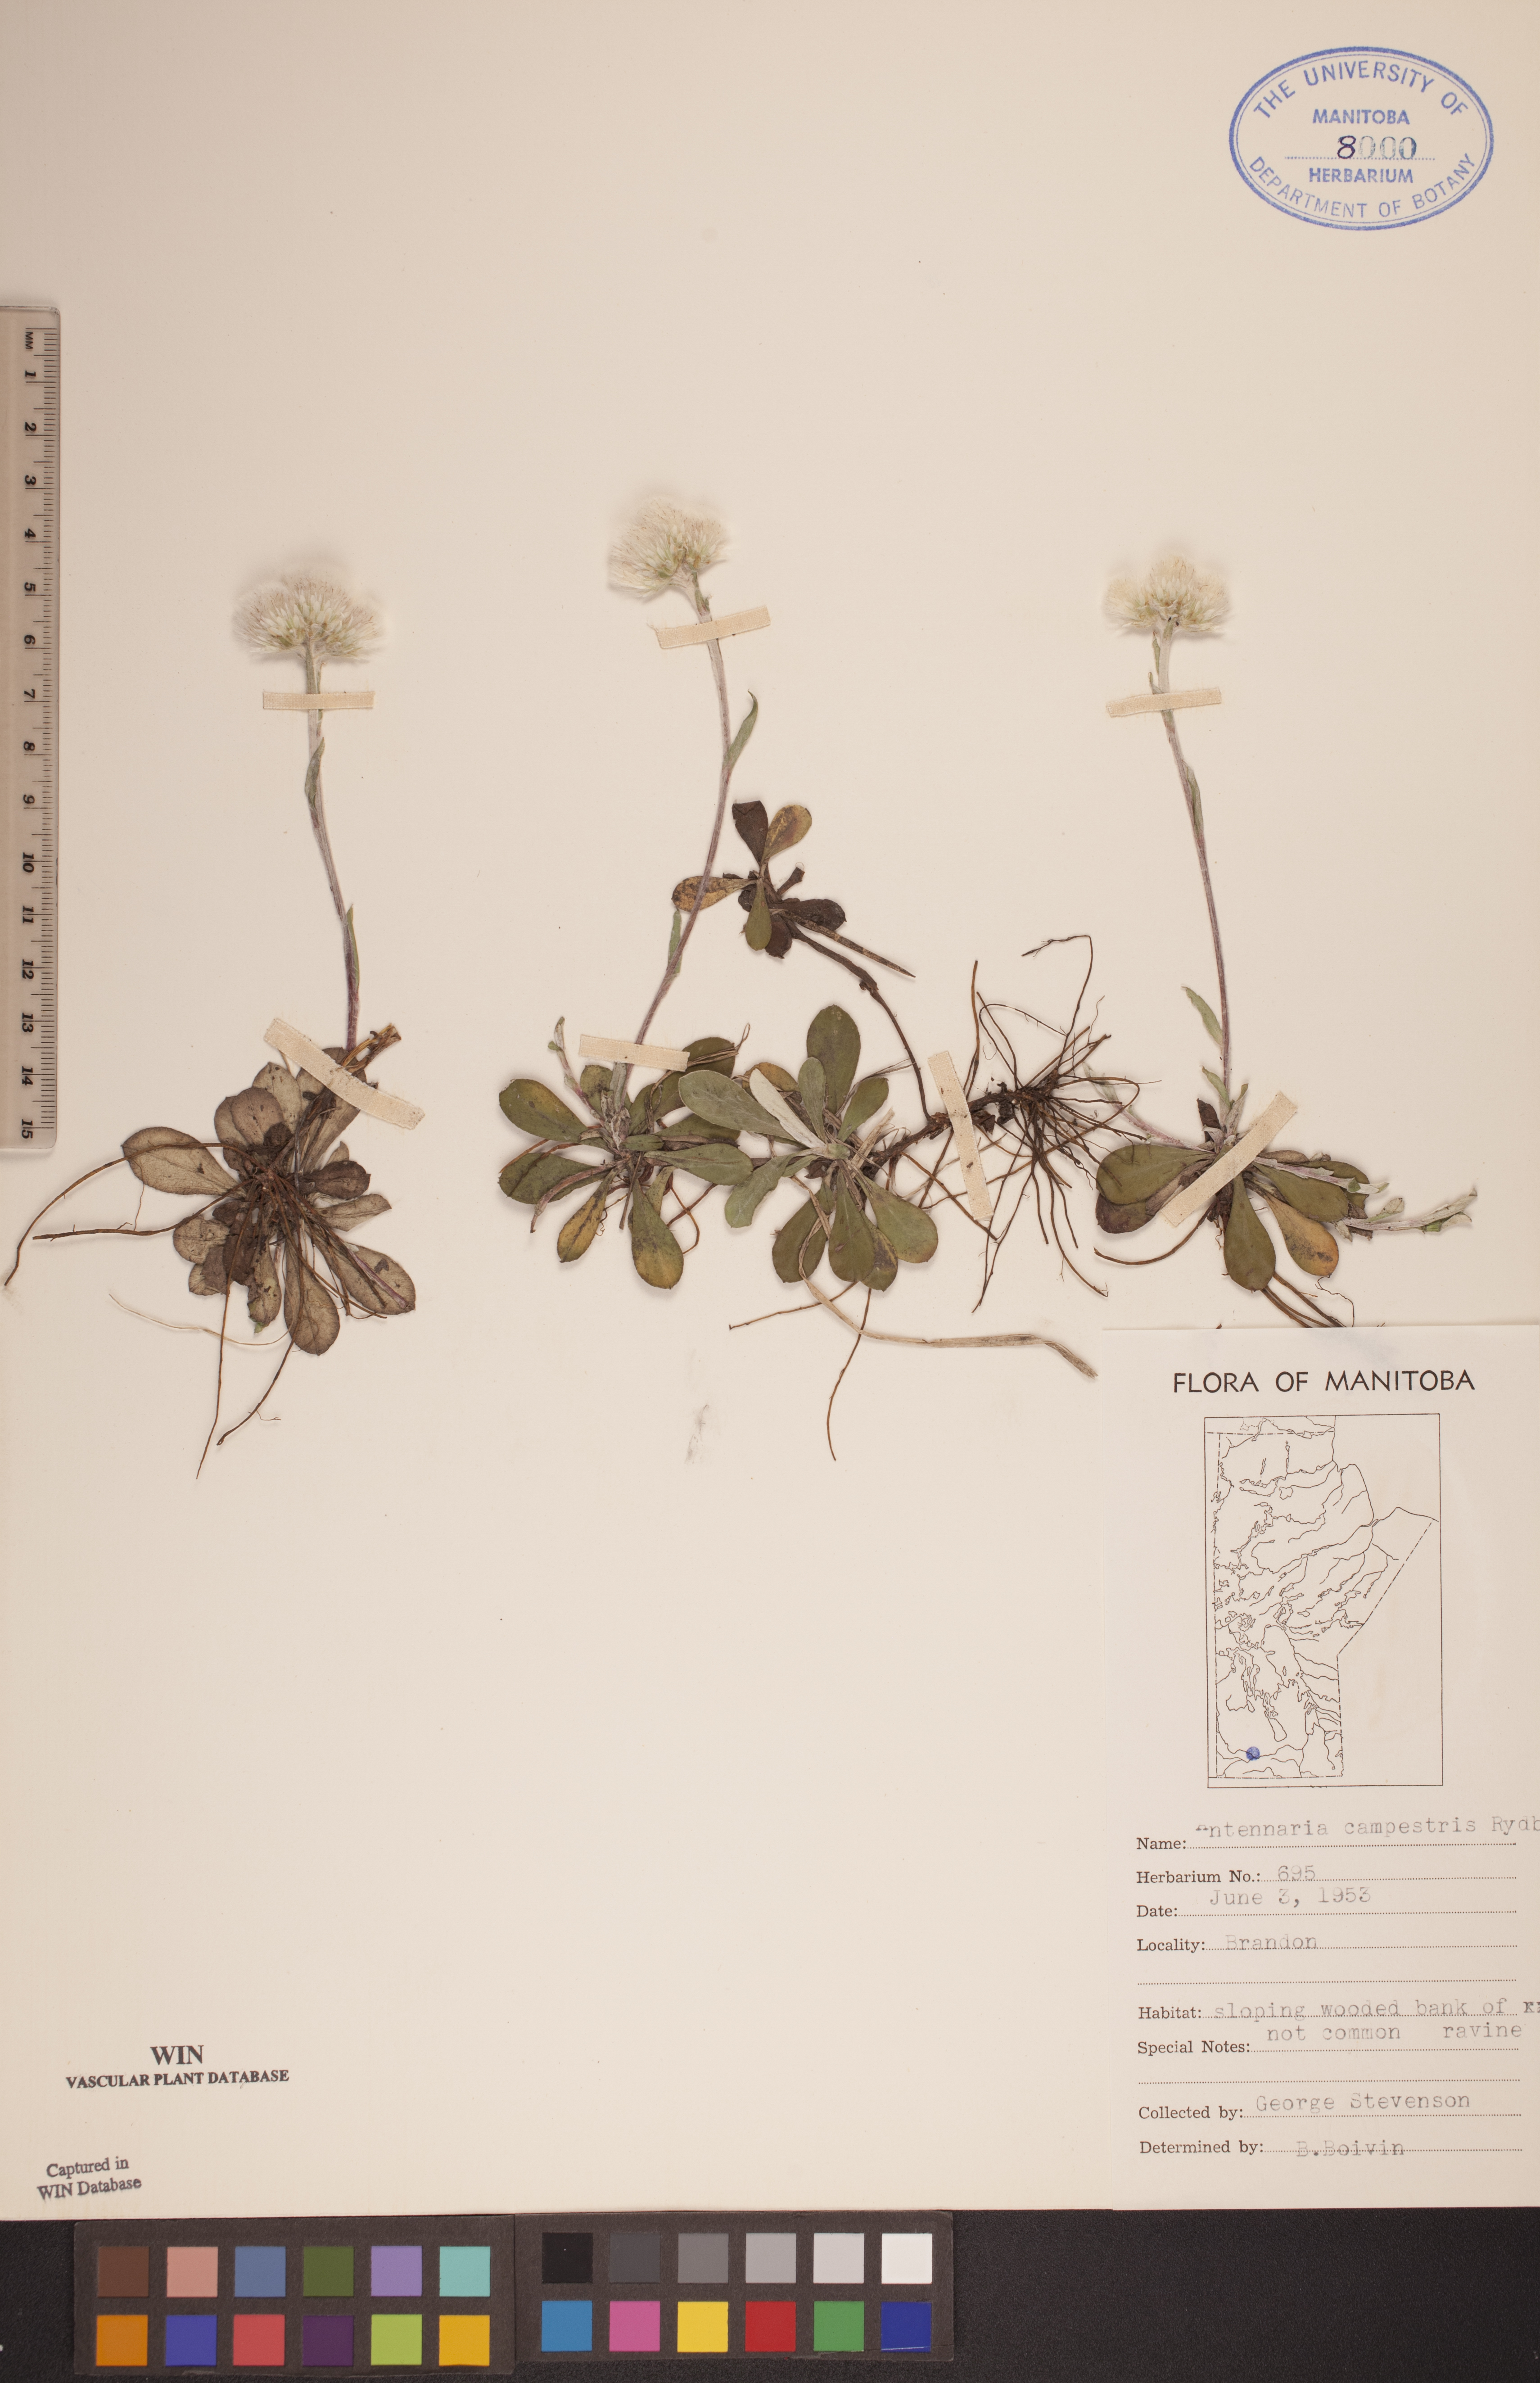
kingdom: Plantae
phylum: Tracheophyta
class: Magnoliopsida
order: Asterales
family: Asteraceae
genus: Antennaria
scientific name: Antennaria neglecta
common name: Field pussytoes
